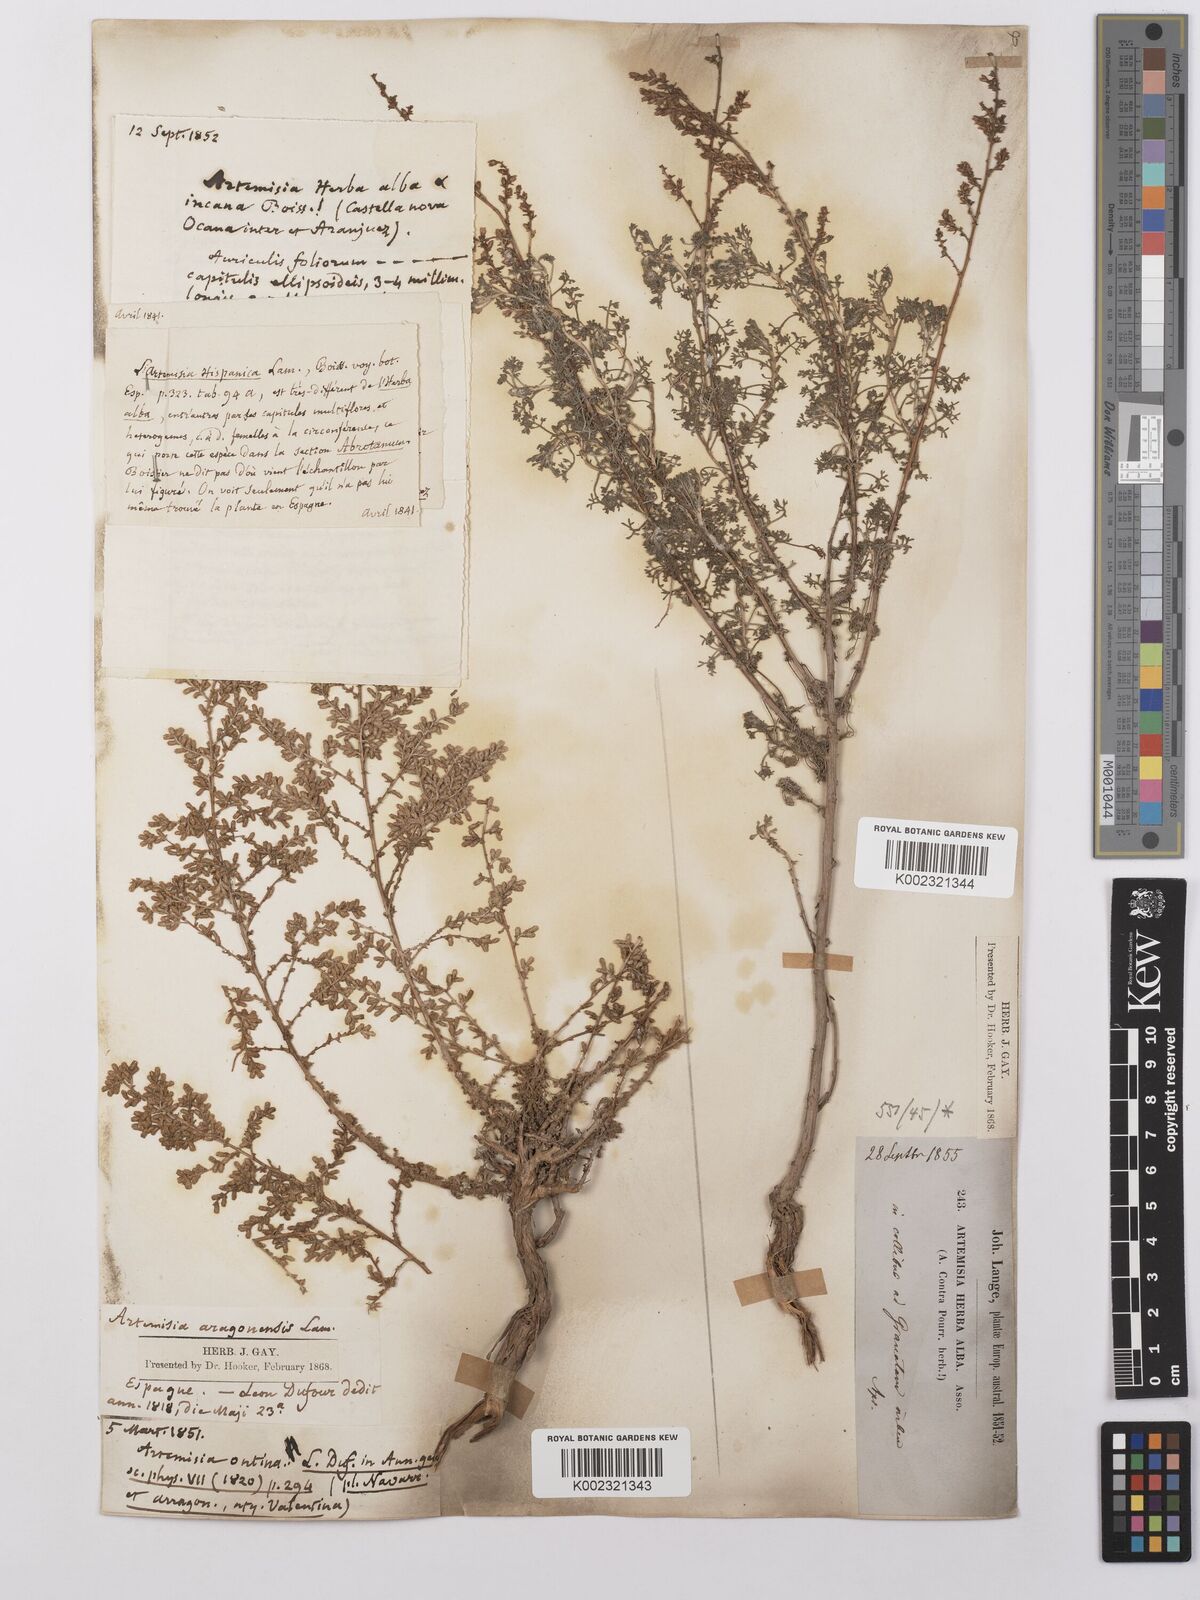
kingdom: Plantae
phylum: Tracheophyta
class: Magnoliopsida
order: Asterales
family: Asteraceae
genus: Artemisia
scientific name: Artemisia herba-alba
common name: White wormwood
